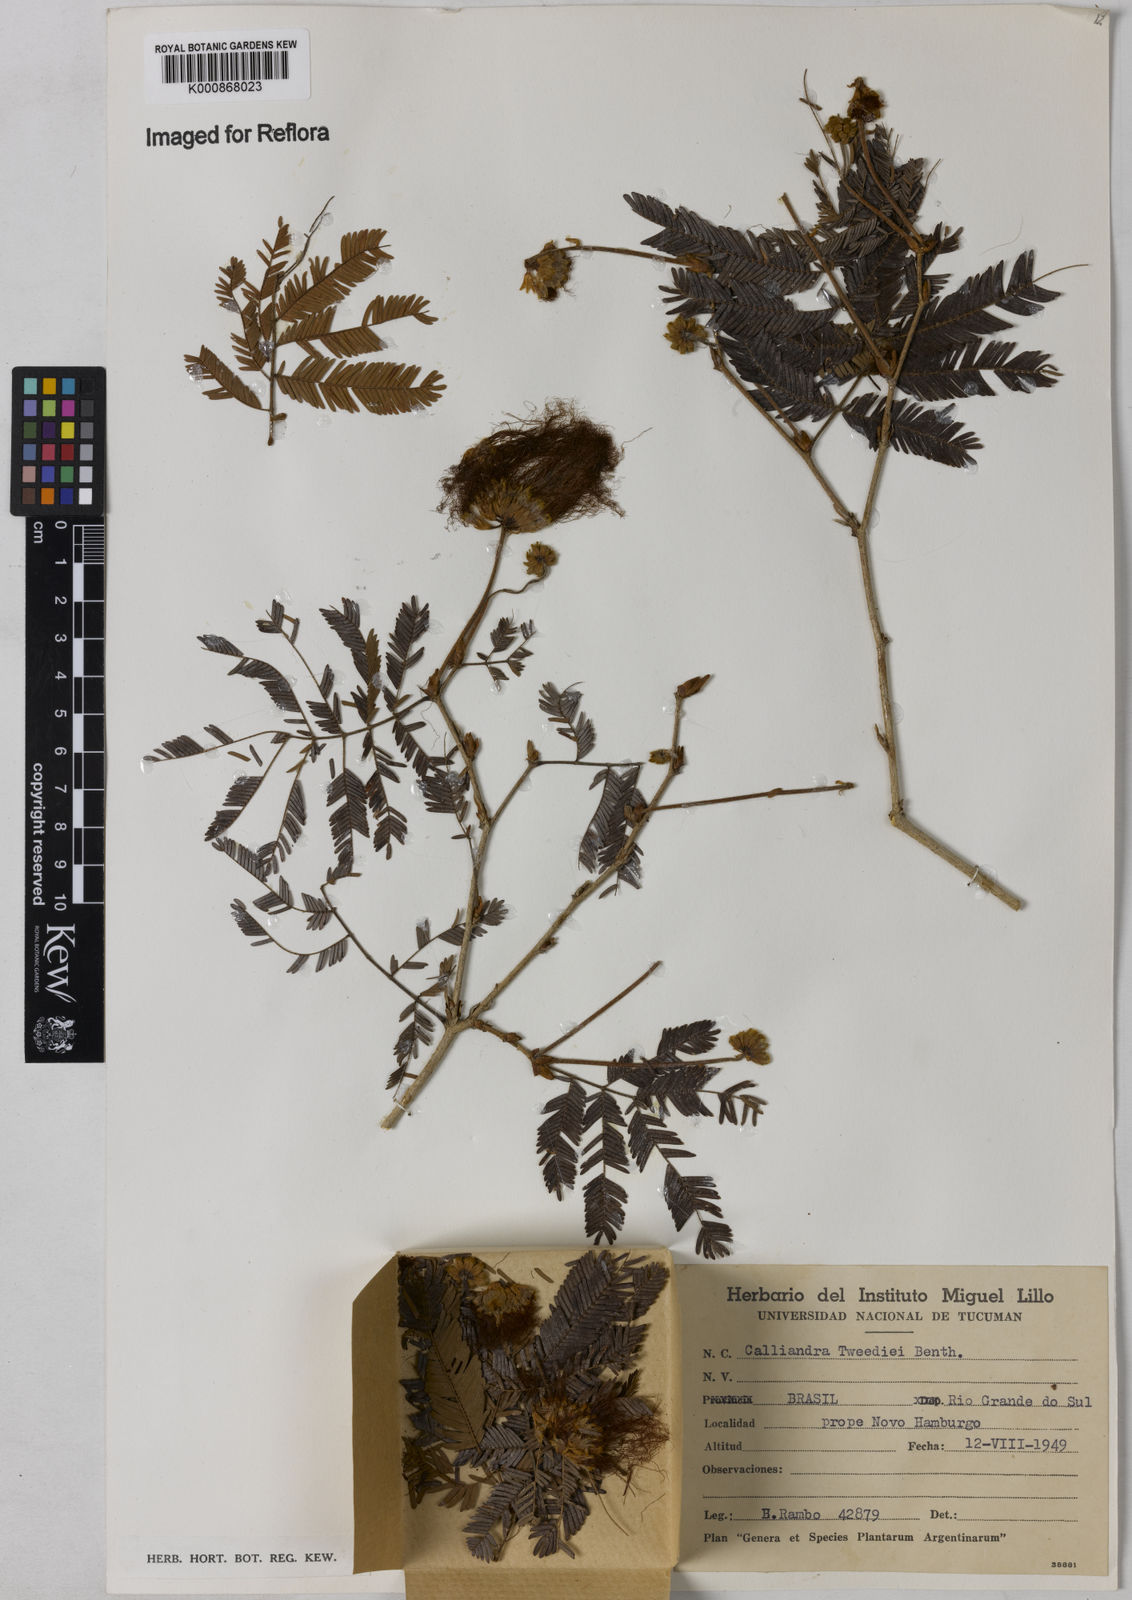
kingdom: Plantae
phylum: Tracheophyta
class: Magnoliopsida
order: Fabales
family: Fabaceae
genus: Calliandra
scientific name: Calliandra tweediei
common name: Mexican flamebush
